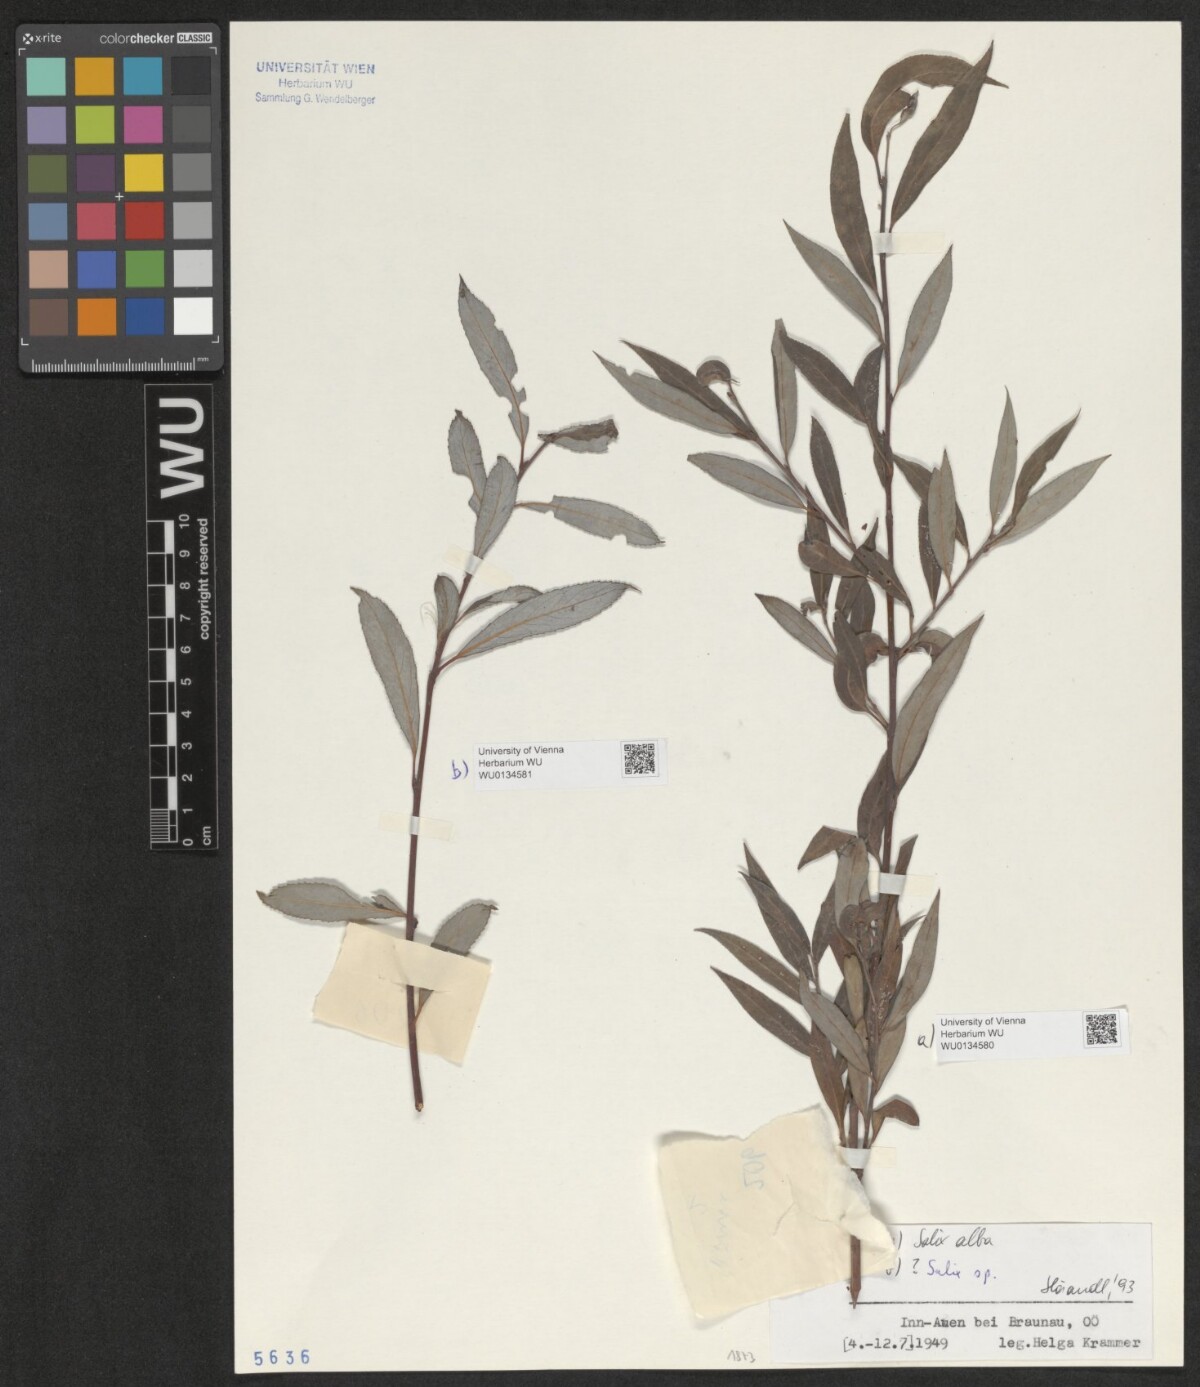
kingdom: Plantae
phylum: Tracheophyta
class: Magnoliopsida
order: Malpighiales
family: Salicaceae
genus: Salix
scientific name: Salix alba
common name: White willow
